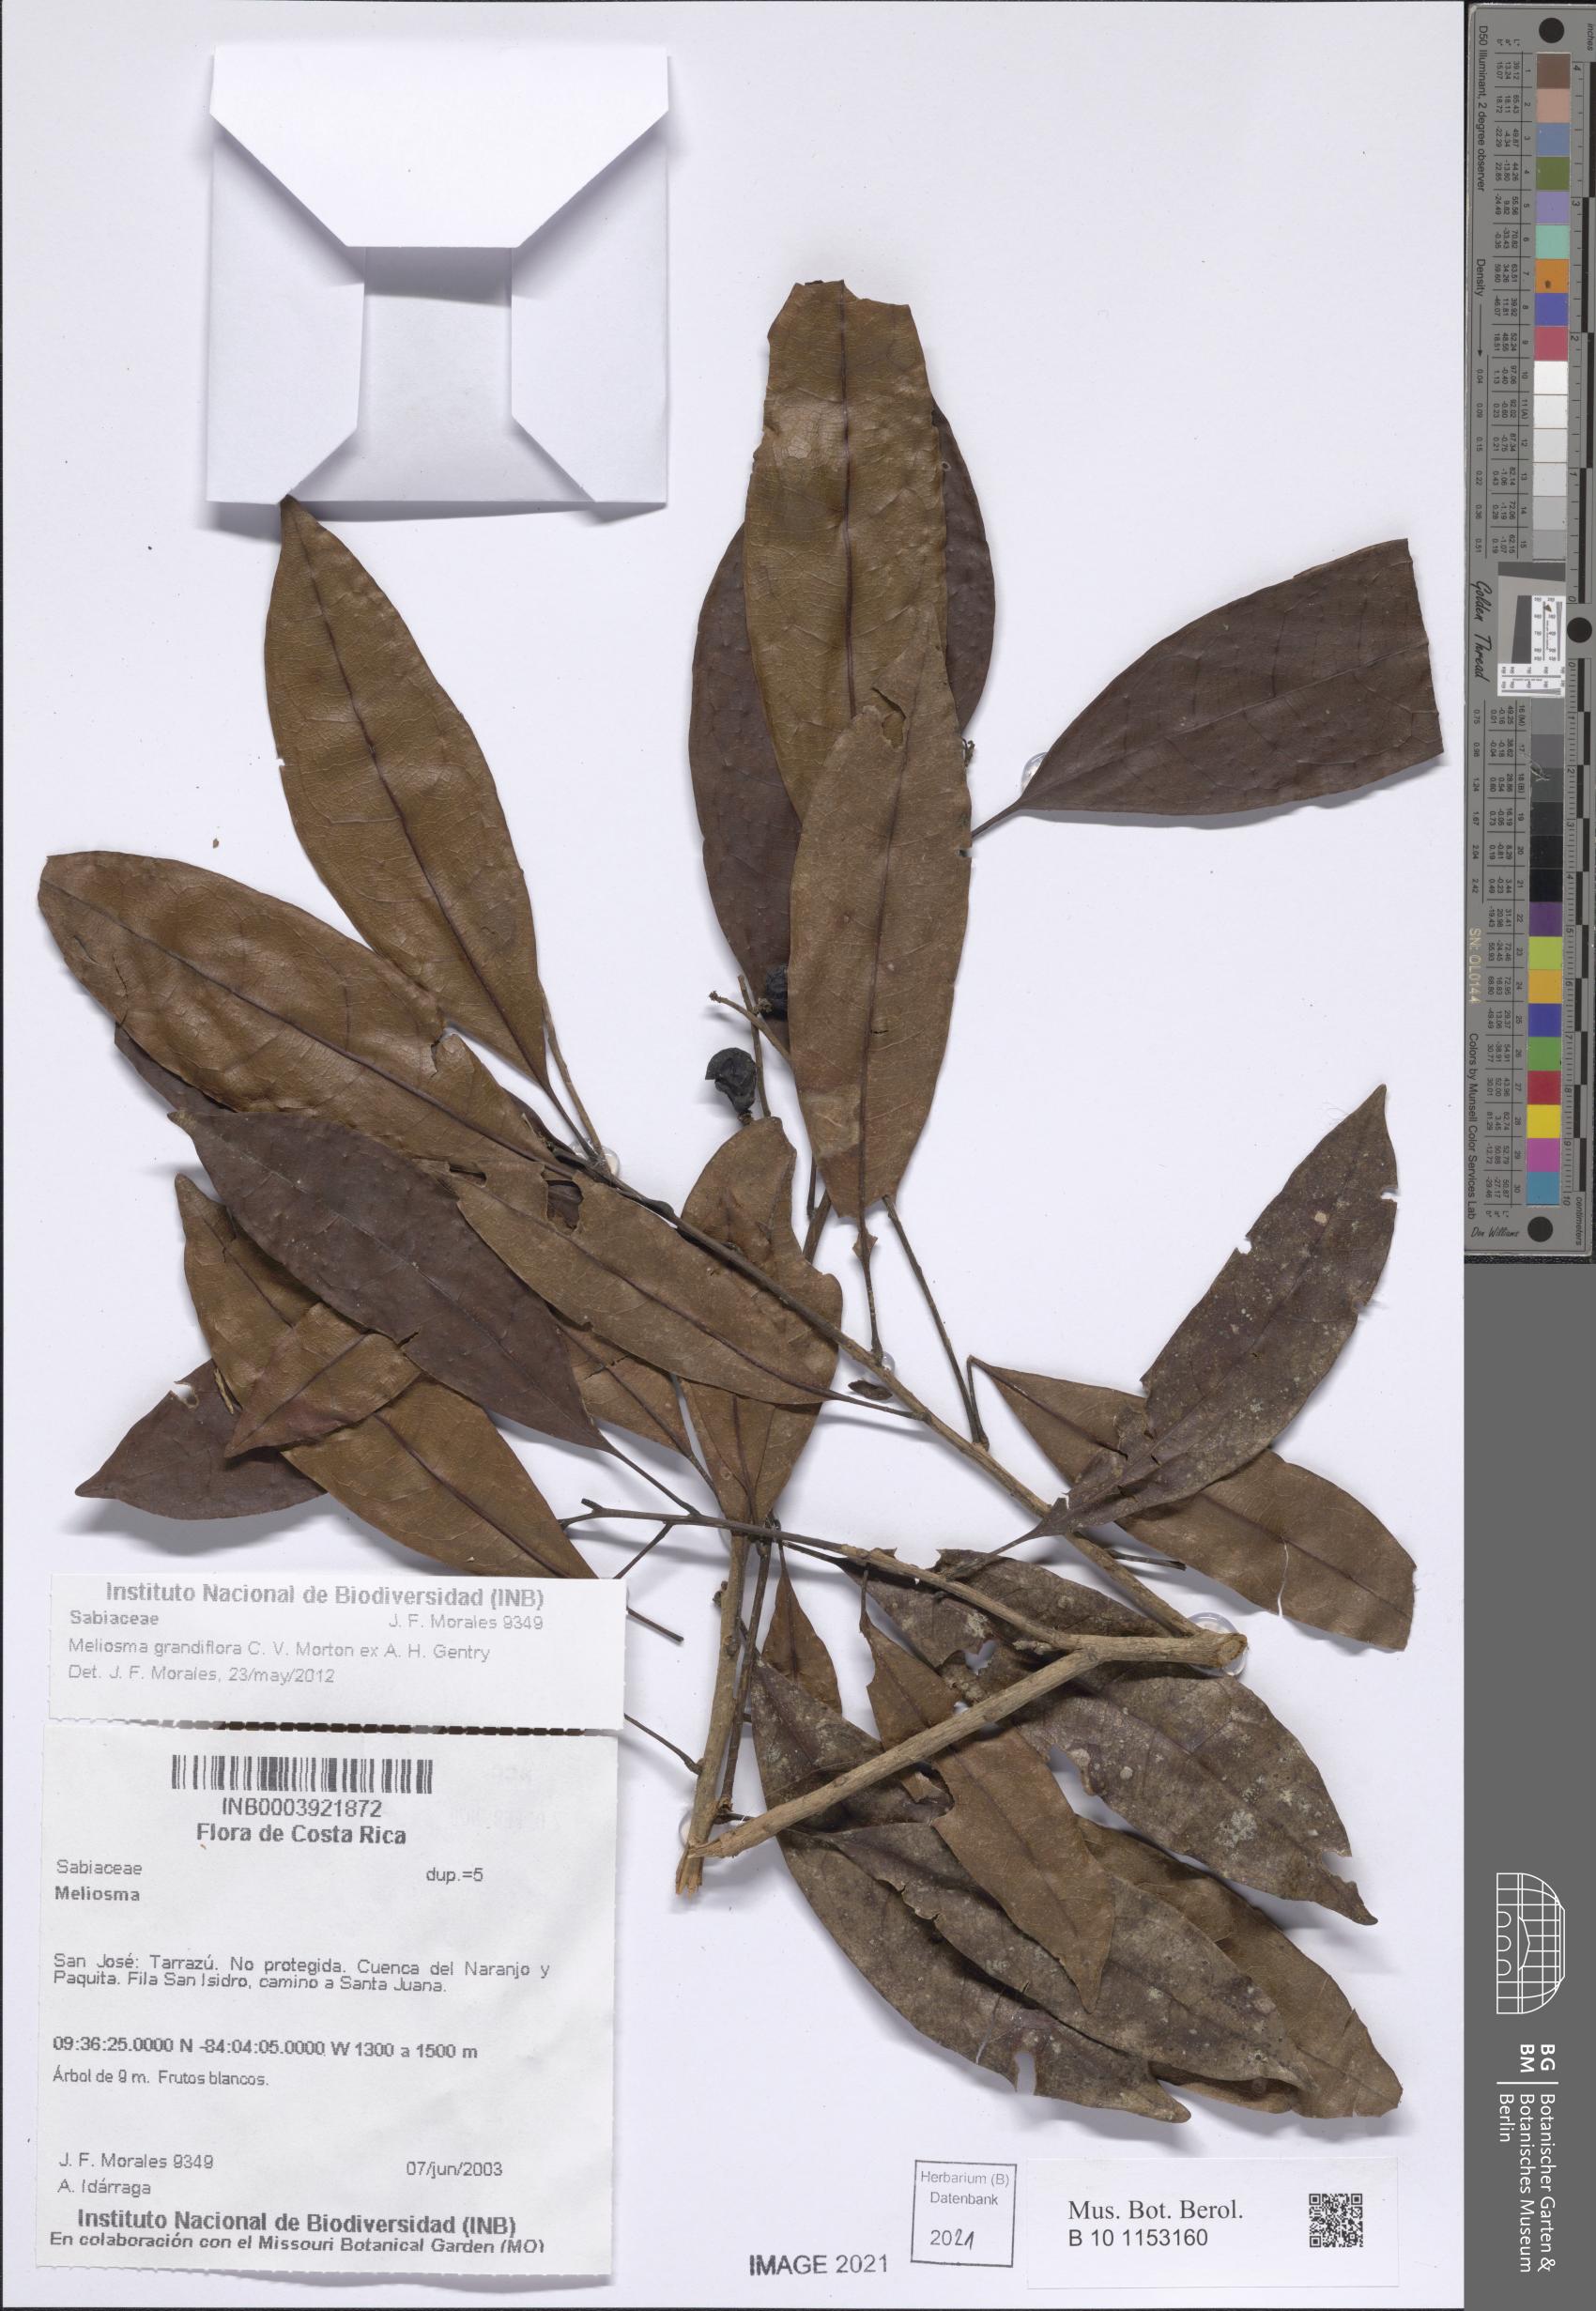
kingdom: Plantae
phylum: Tracheophyta
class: Magnoliopsida
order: Proteales
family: Sabiaceae
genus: Meliosma
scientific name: Meliosma grandifolia
